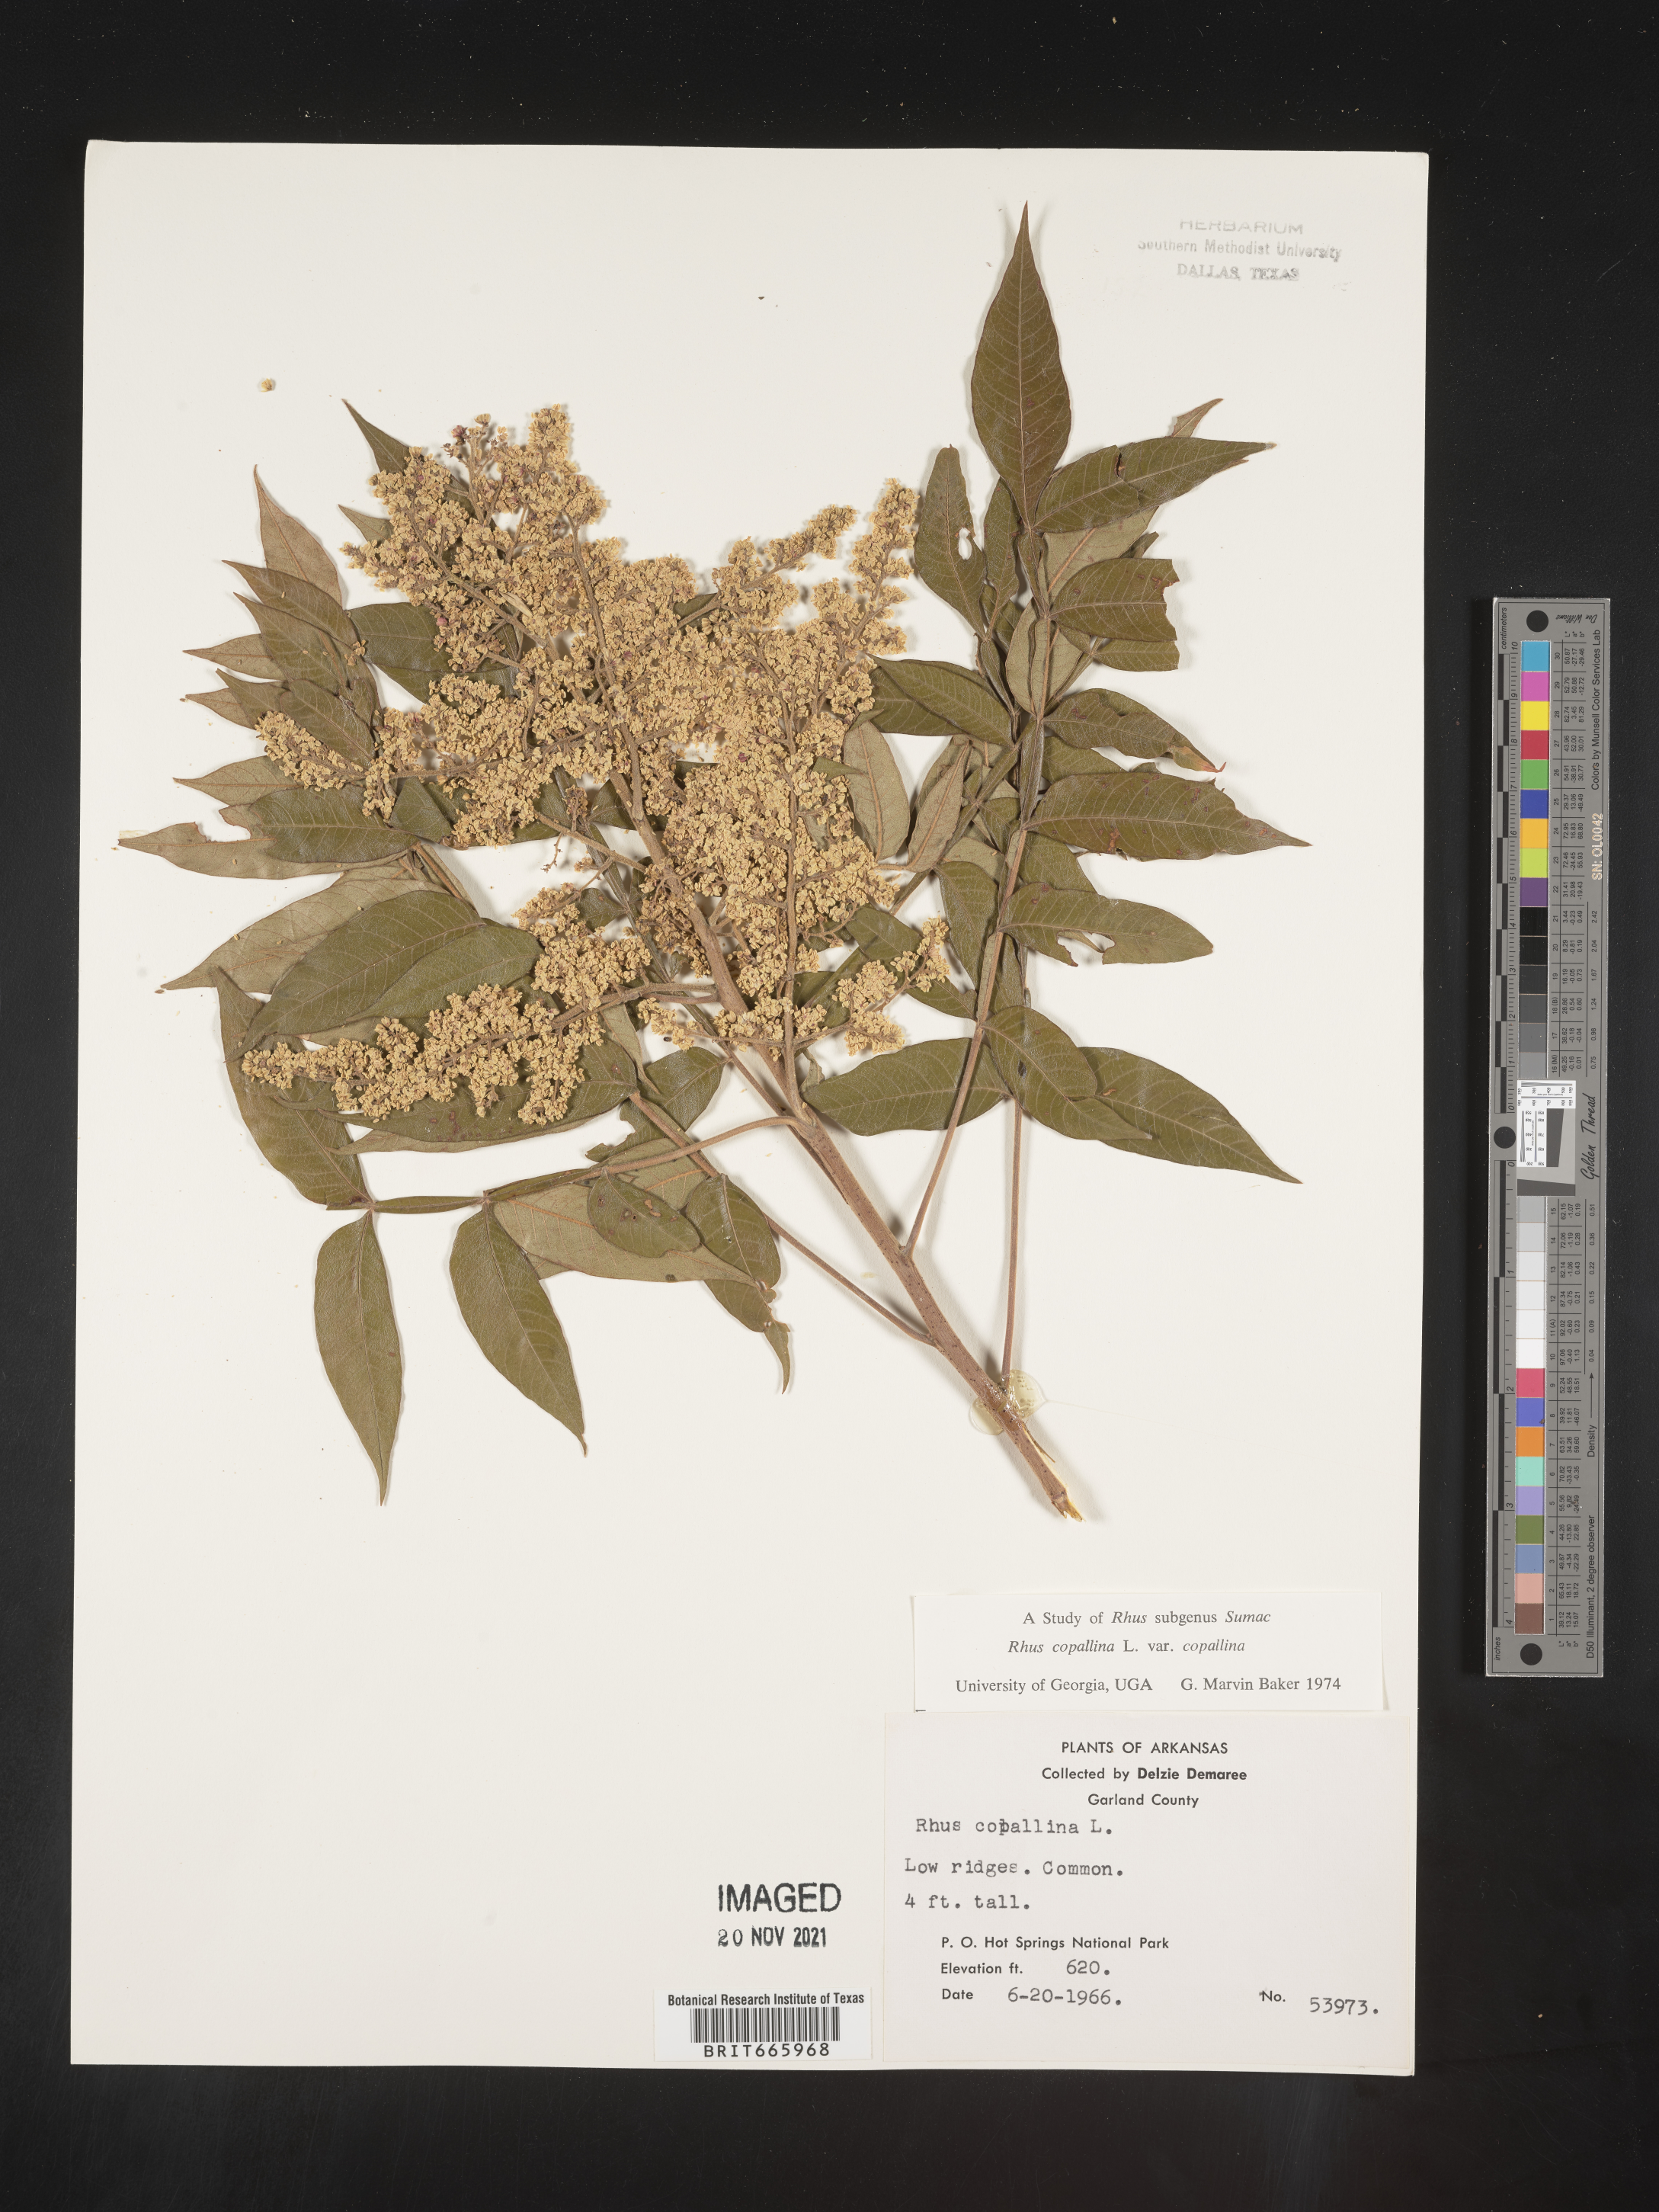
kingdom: Plantae
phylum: Tracheophyta
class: Magnoliopsida
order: Sapindales
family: Anacardiaceae
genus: Rhus
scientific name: Rhus copallina
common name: Shining sumac
